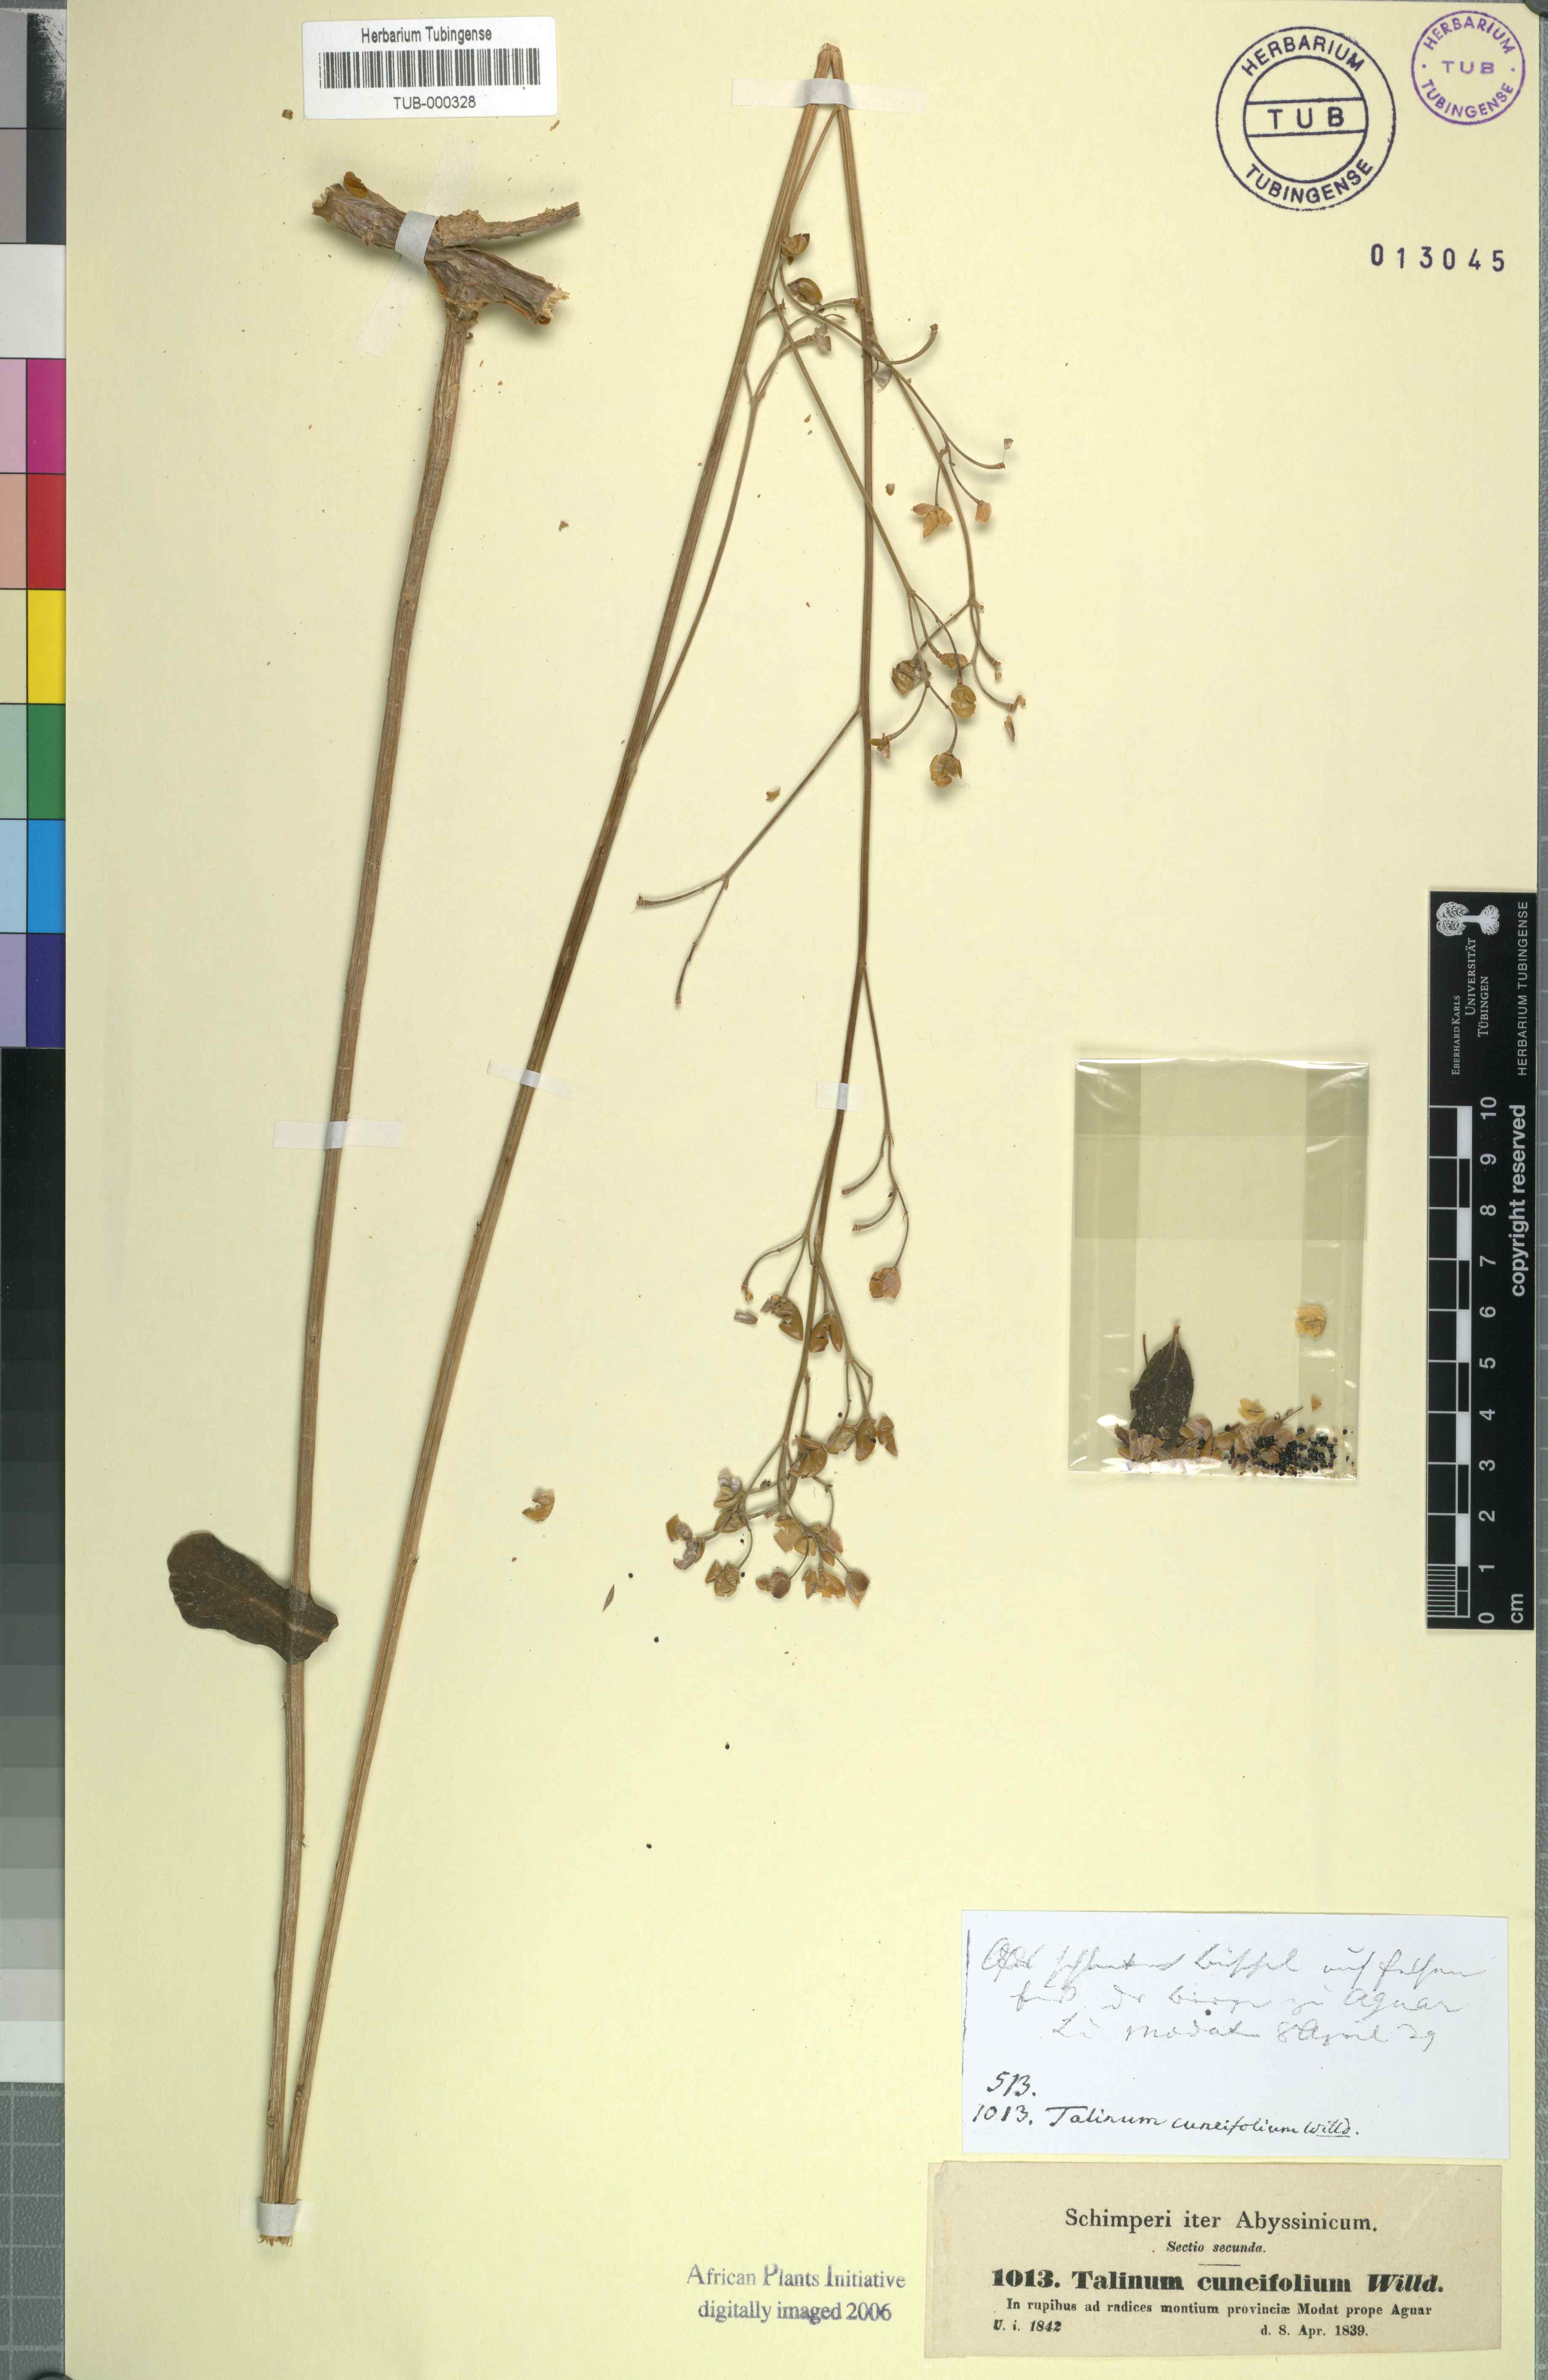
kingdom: Plantae
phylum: Tracheophyta
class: Magnoliopsida
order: Caryophyllales
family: Talinaceae
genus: Talinum
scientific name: Talinum portulacifolium
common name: Flameflower
